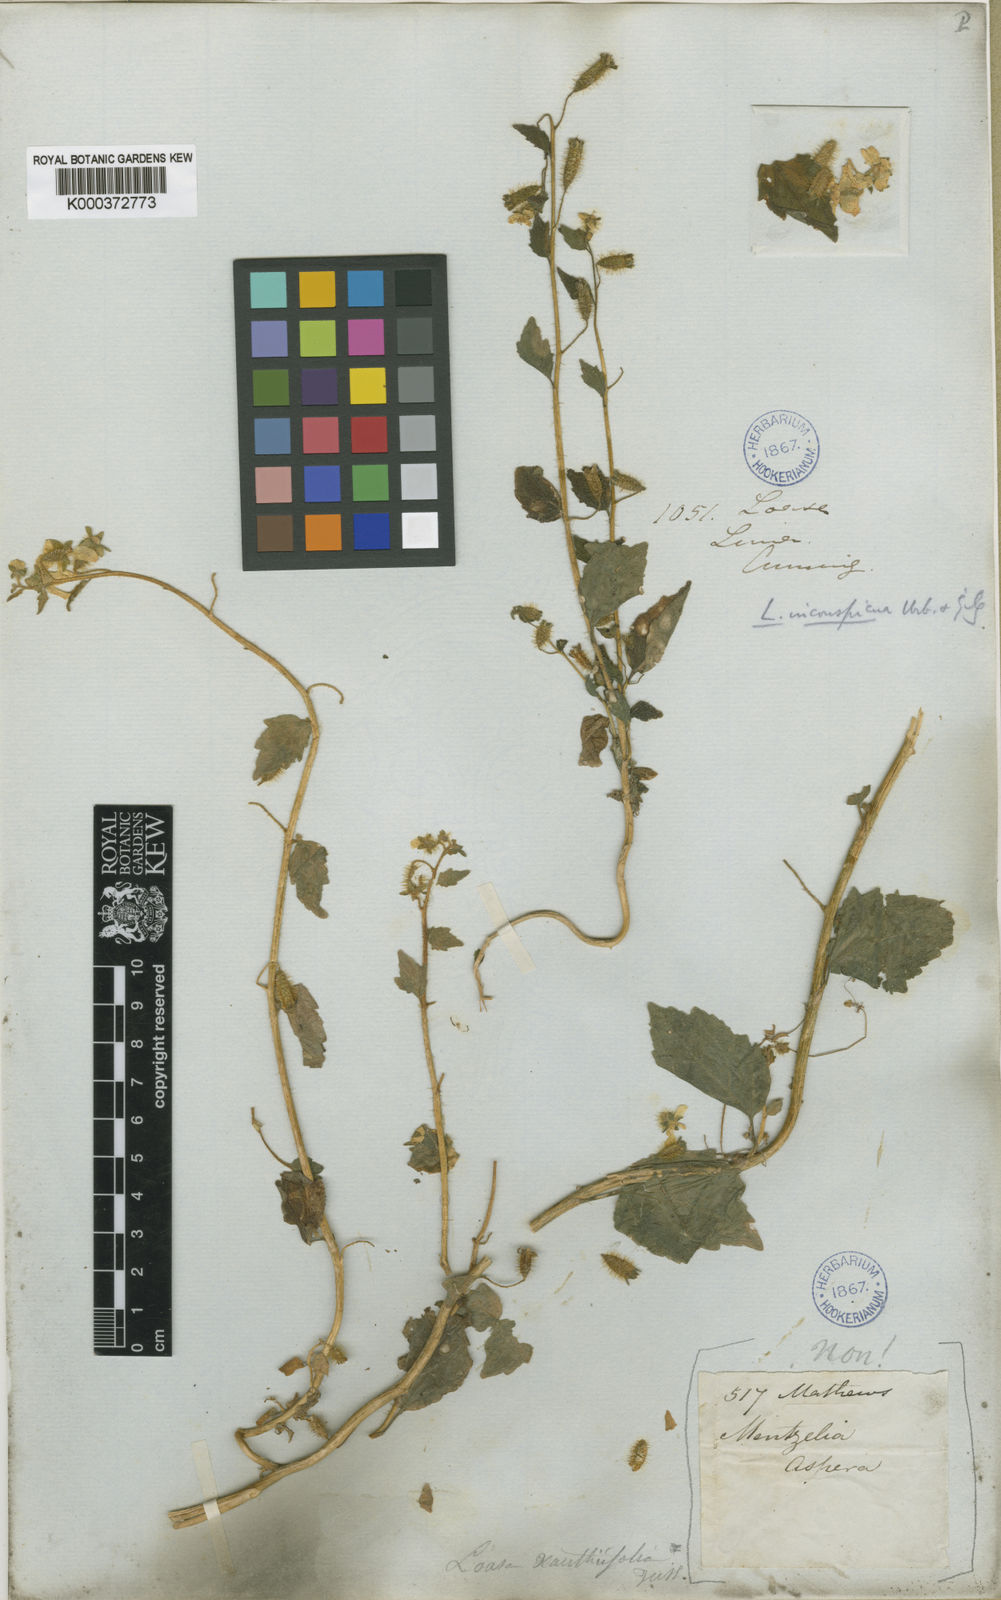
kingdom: Plantae
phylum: Tracheophyta
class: Magnoliopsida
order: Cornales
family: Loasaceae
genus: Nasa
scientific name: Nasa chenopodiifolia
